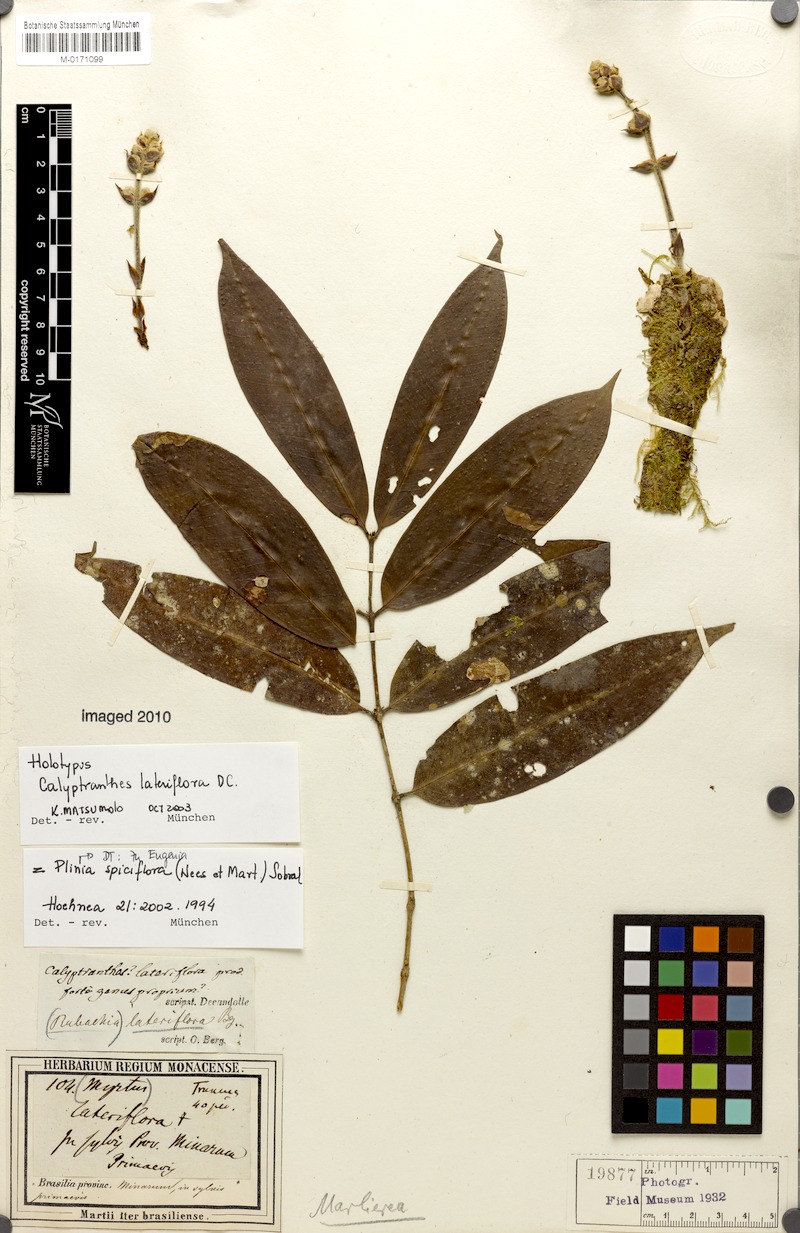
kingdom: Plantae
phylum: Tracheophyta
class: Magnoliopsida
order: Myrtales
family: Myrtaceae
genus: Plinia
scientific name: Plinia spiciflora
